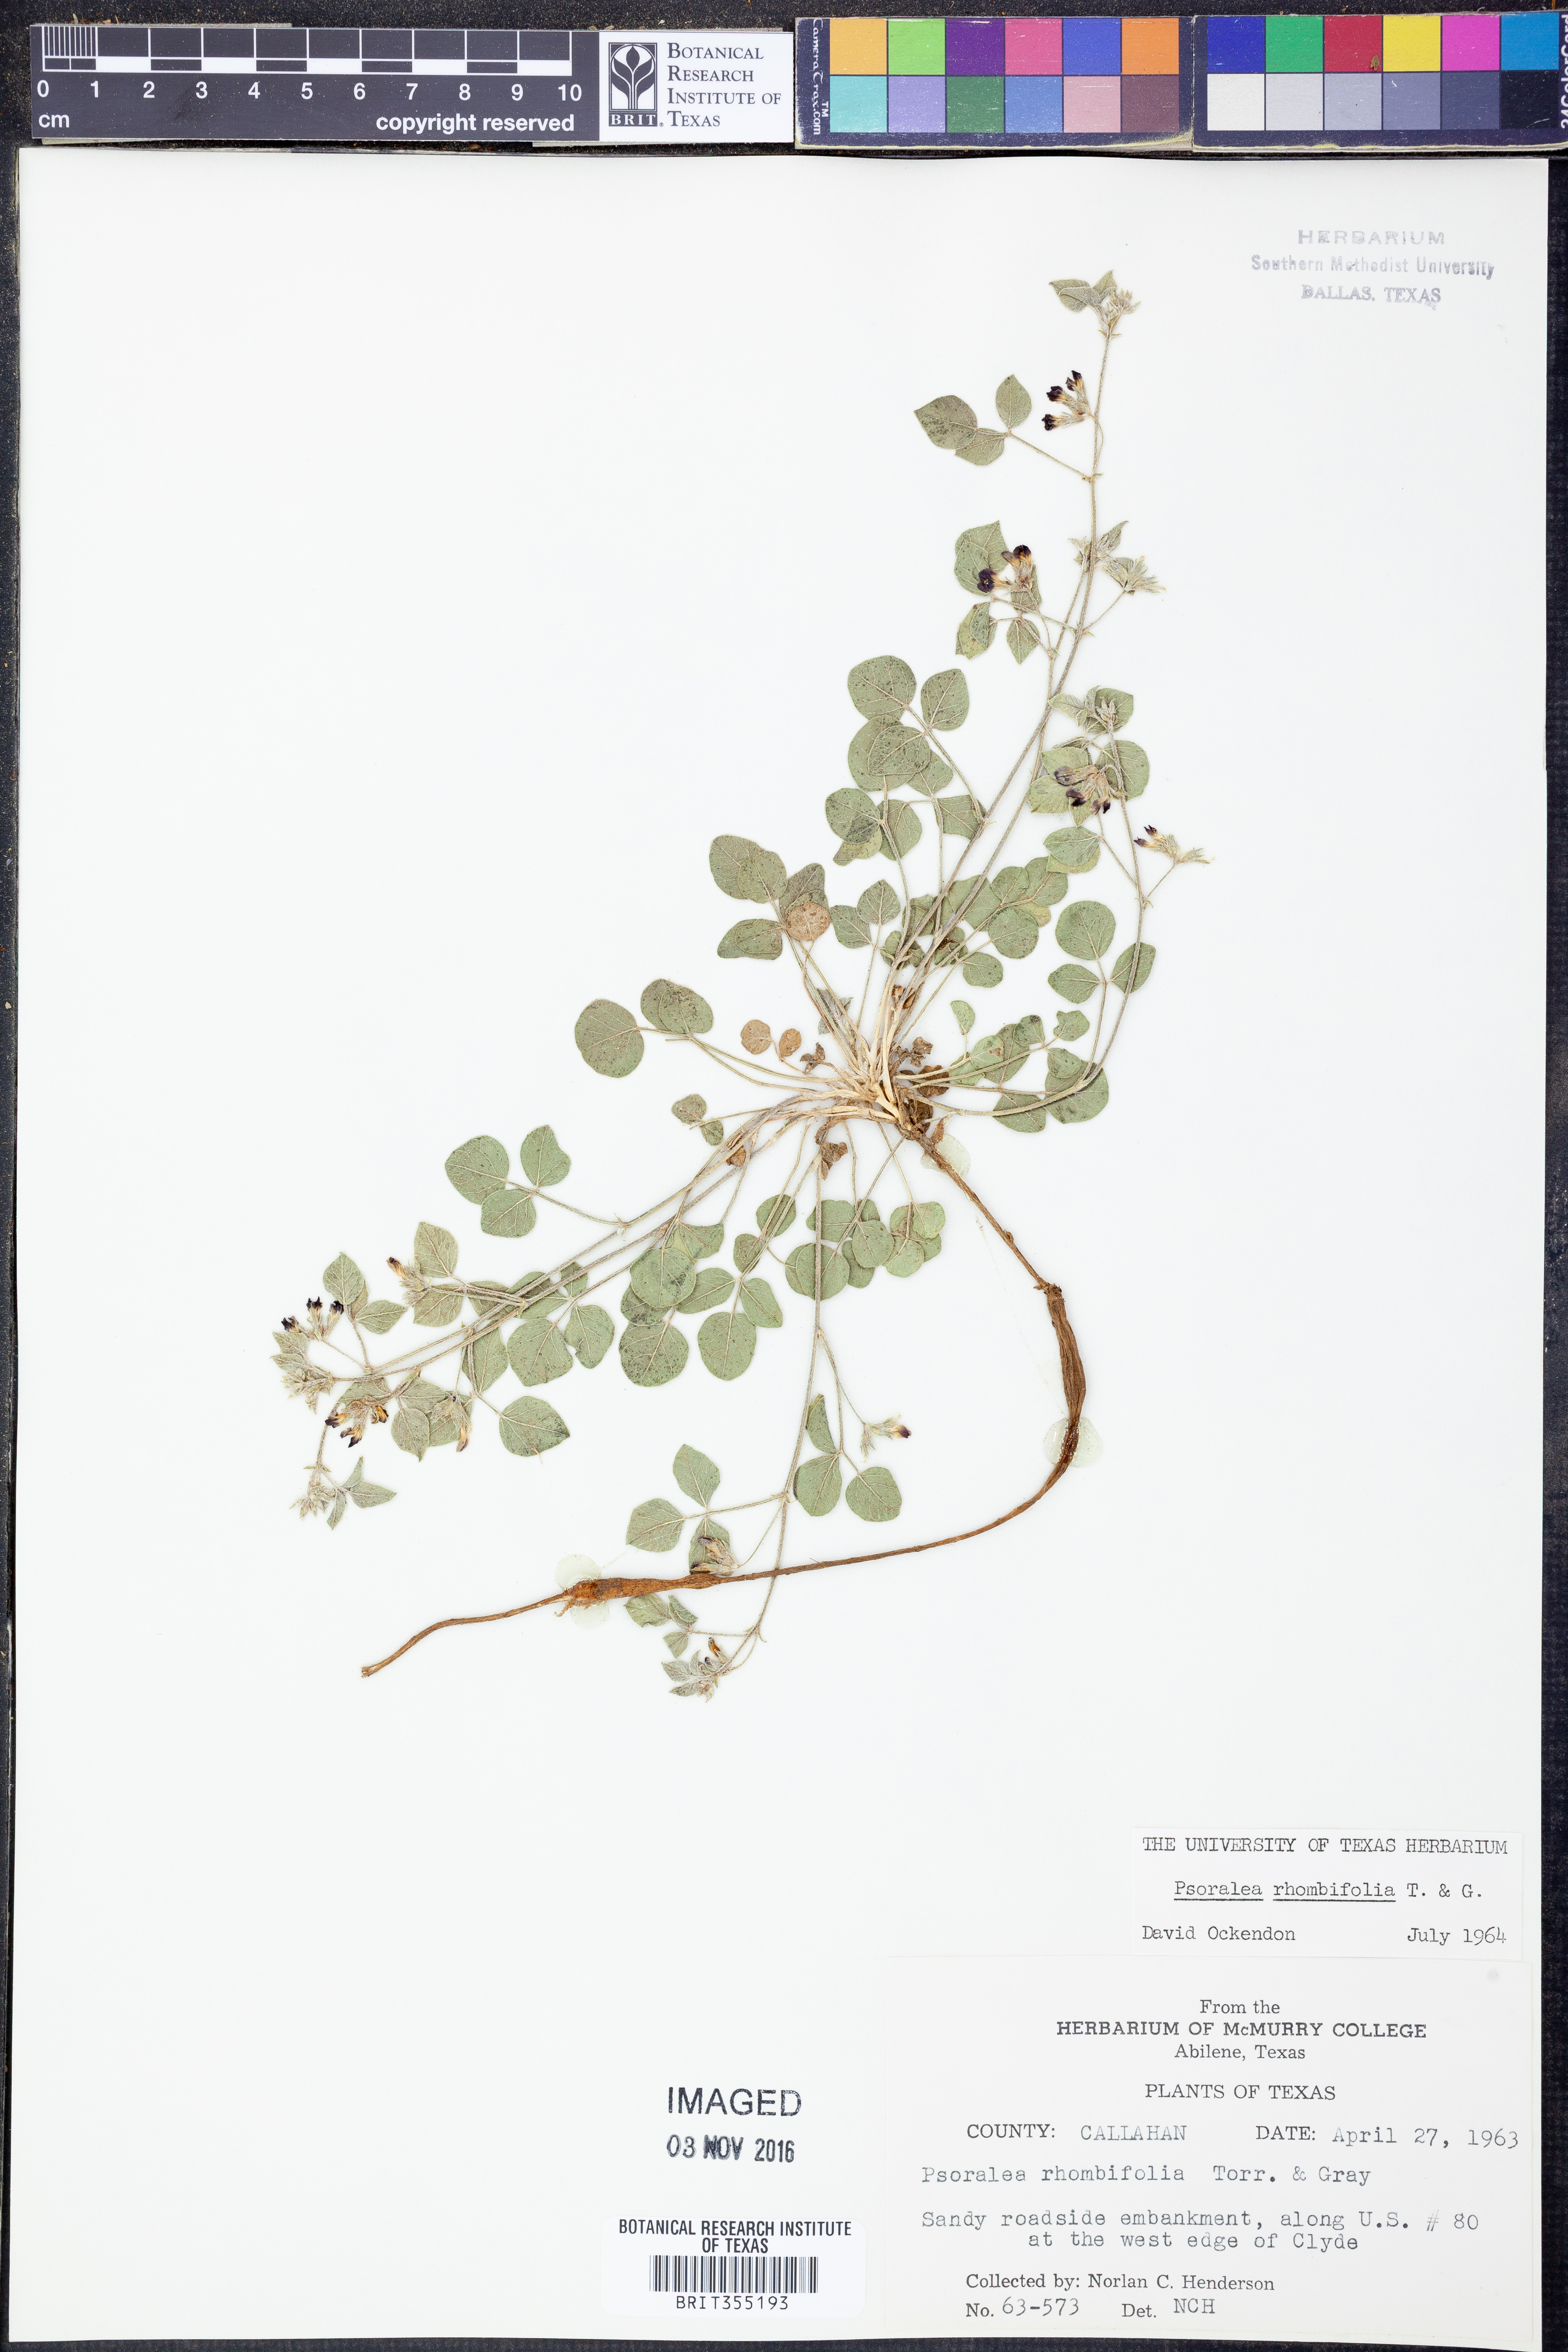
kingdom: Plantae
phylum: Tracheophyta
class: Magnoliopsida
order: Fabales
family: Fabaceae
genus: Pediomelum
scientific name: Pediomelum rhombifolium
